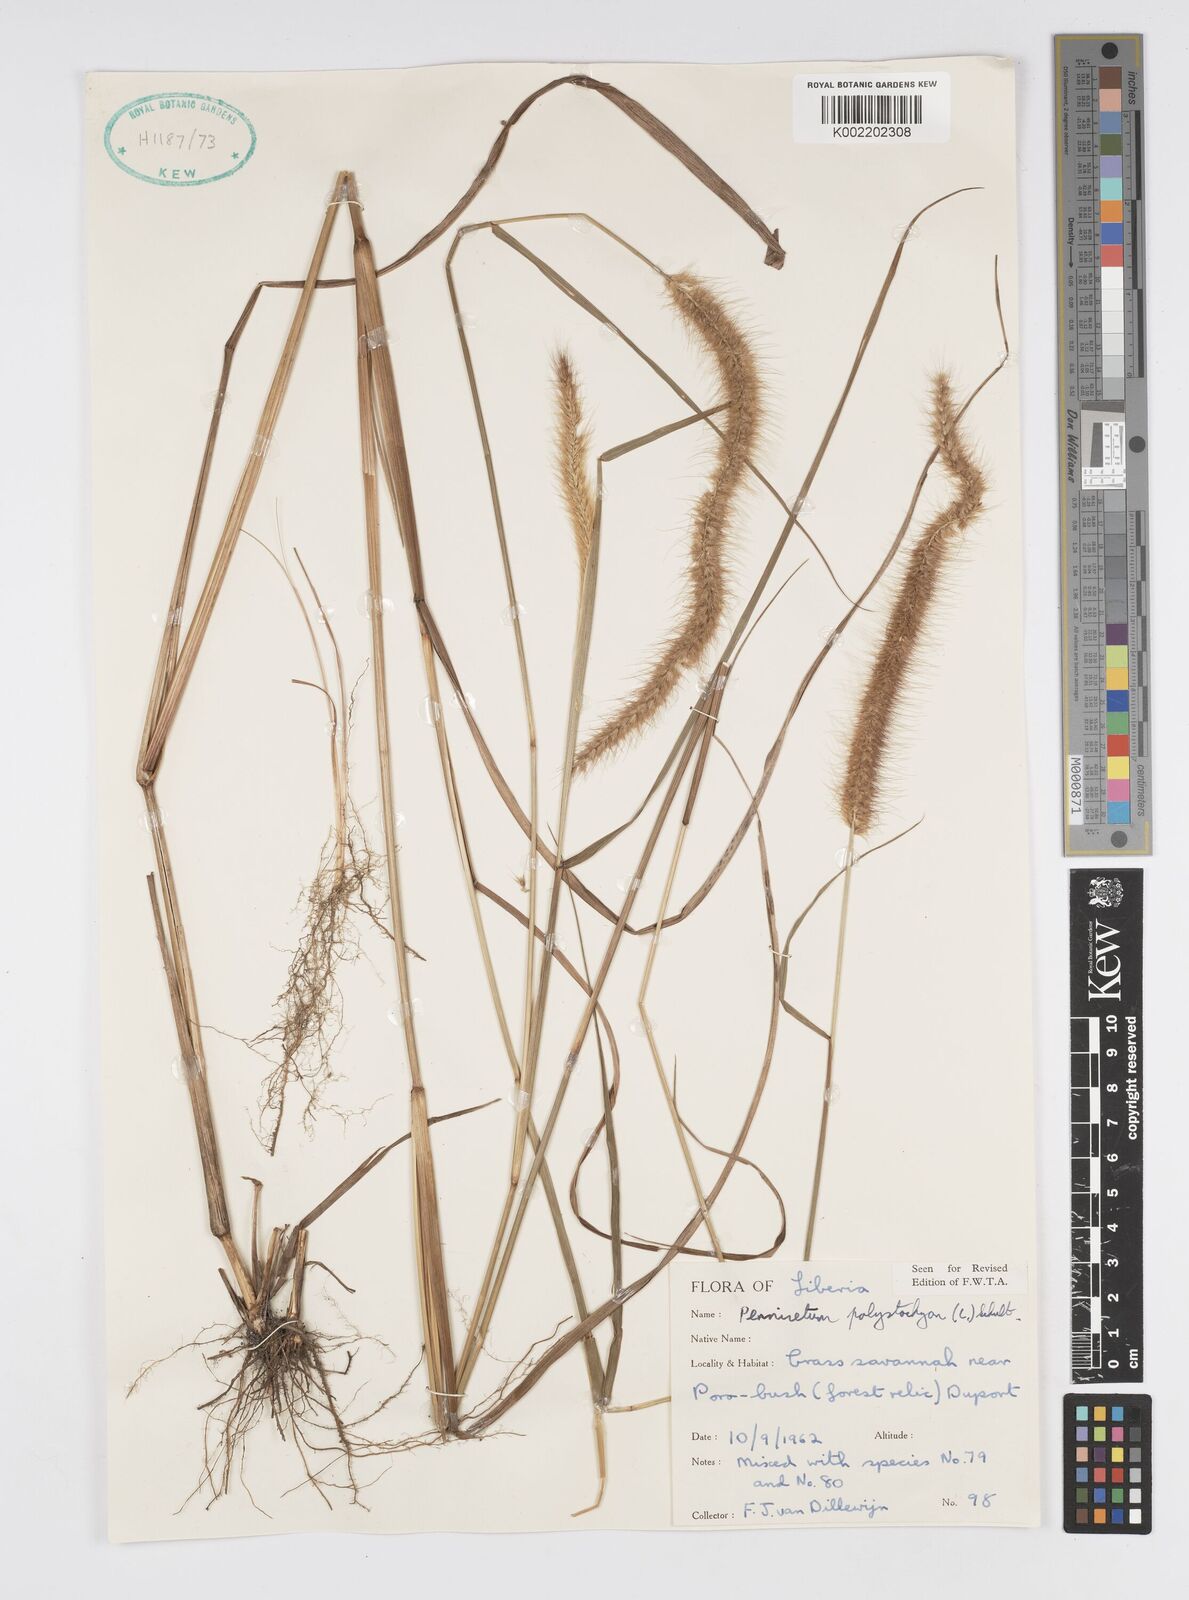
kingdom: Plantae
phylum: Tracheophyta
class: Liliopsida
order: Poales
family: Poaceae
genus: Setaria
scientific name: Setaria parviflora
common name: Knotroot bristle-grass
